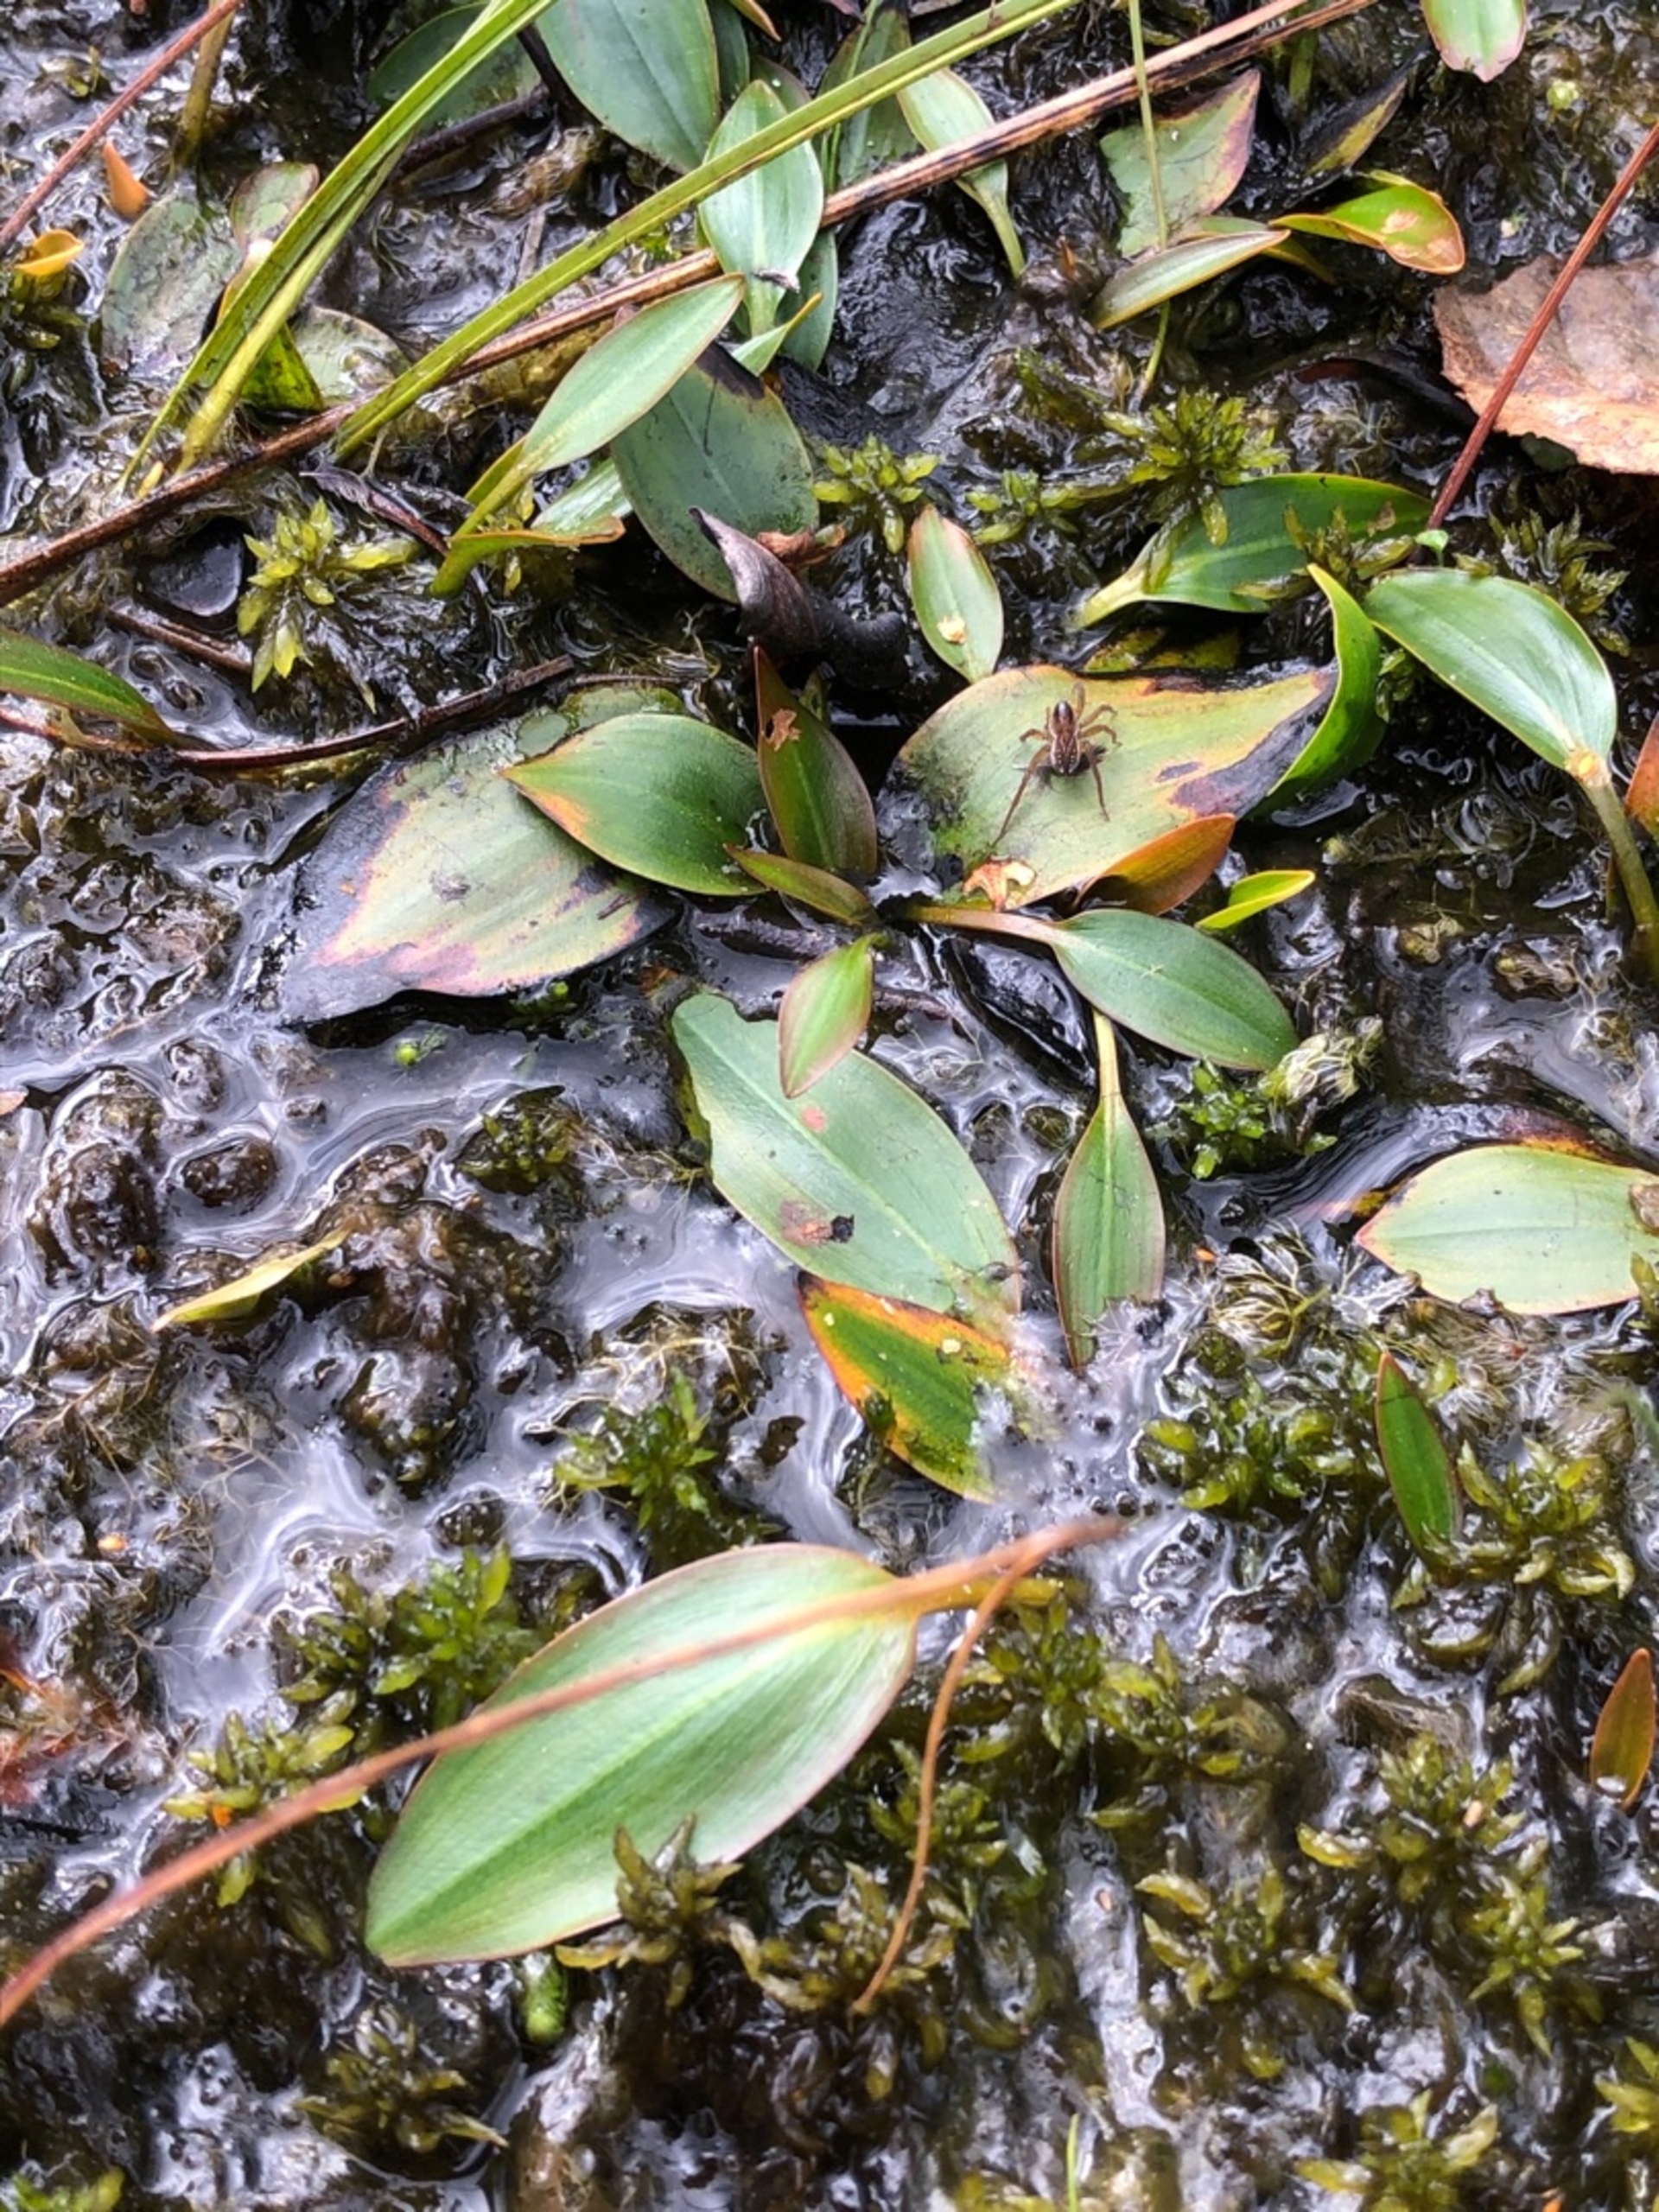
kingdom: Plantae
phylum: Tracheophyta
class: Liliopsida
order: Alismatales
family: Potamogetonaceae
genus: Potamogeton
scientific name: Potamogeton polygonifolius
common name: Aflangbladet vandaks
